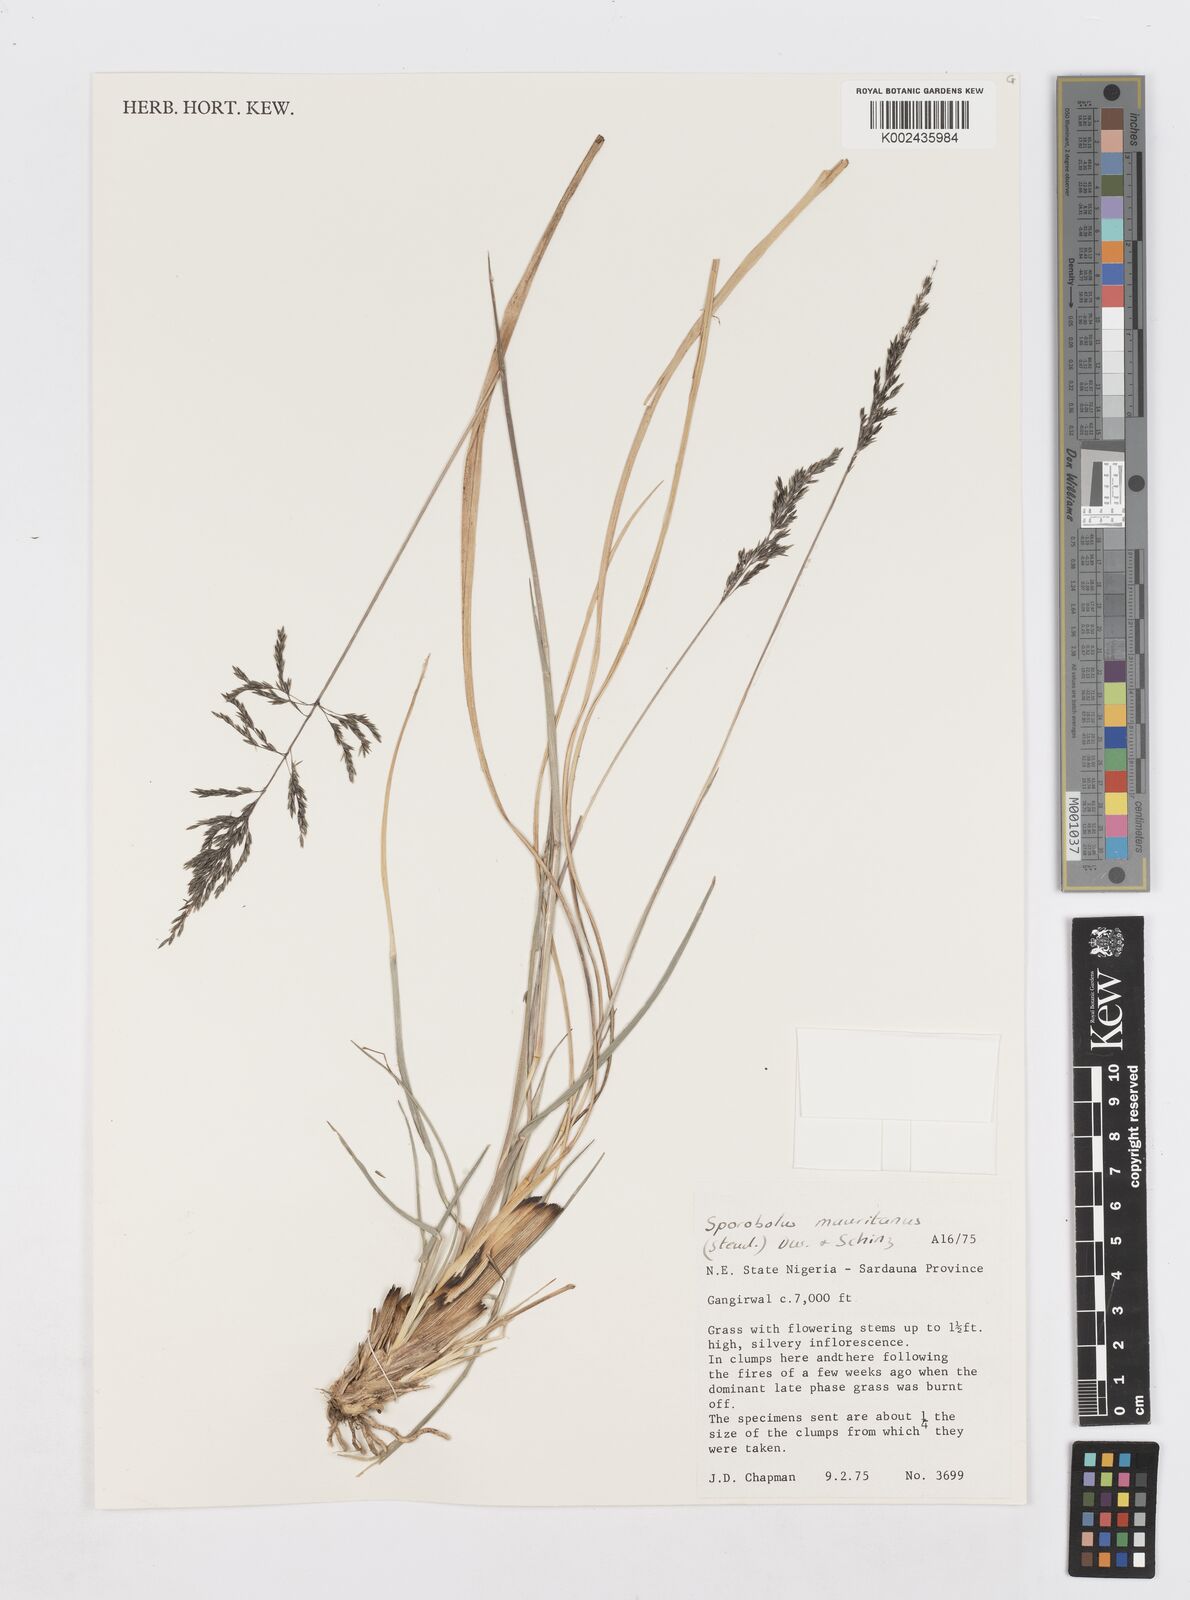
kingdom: Plantae
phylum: Tracheophyta
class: Liliopsida
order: Poales
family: Poaceae
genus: Sporobolus
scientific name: Sporobolus subulatus
